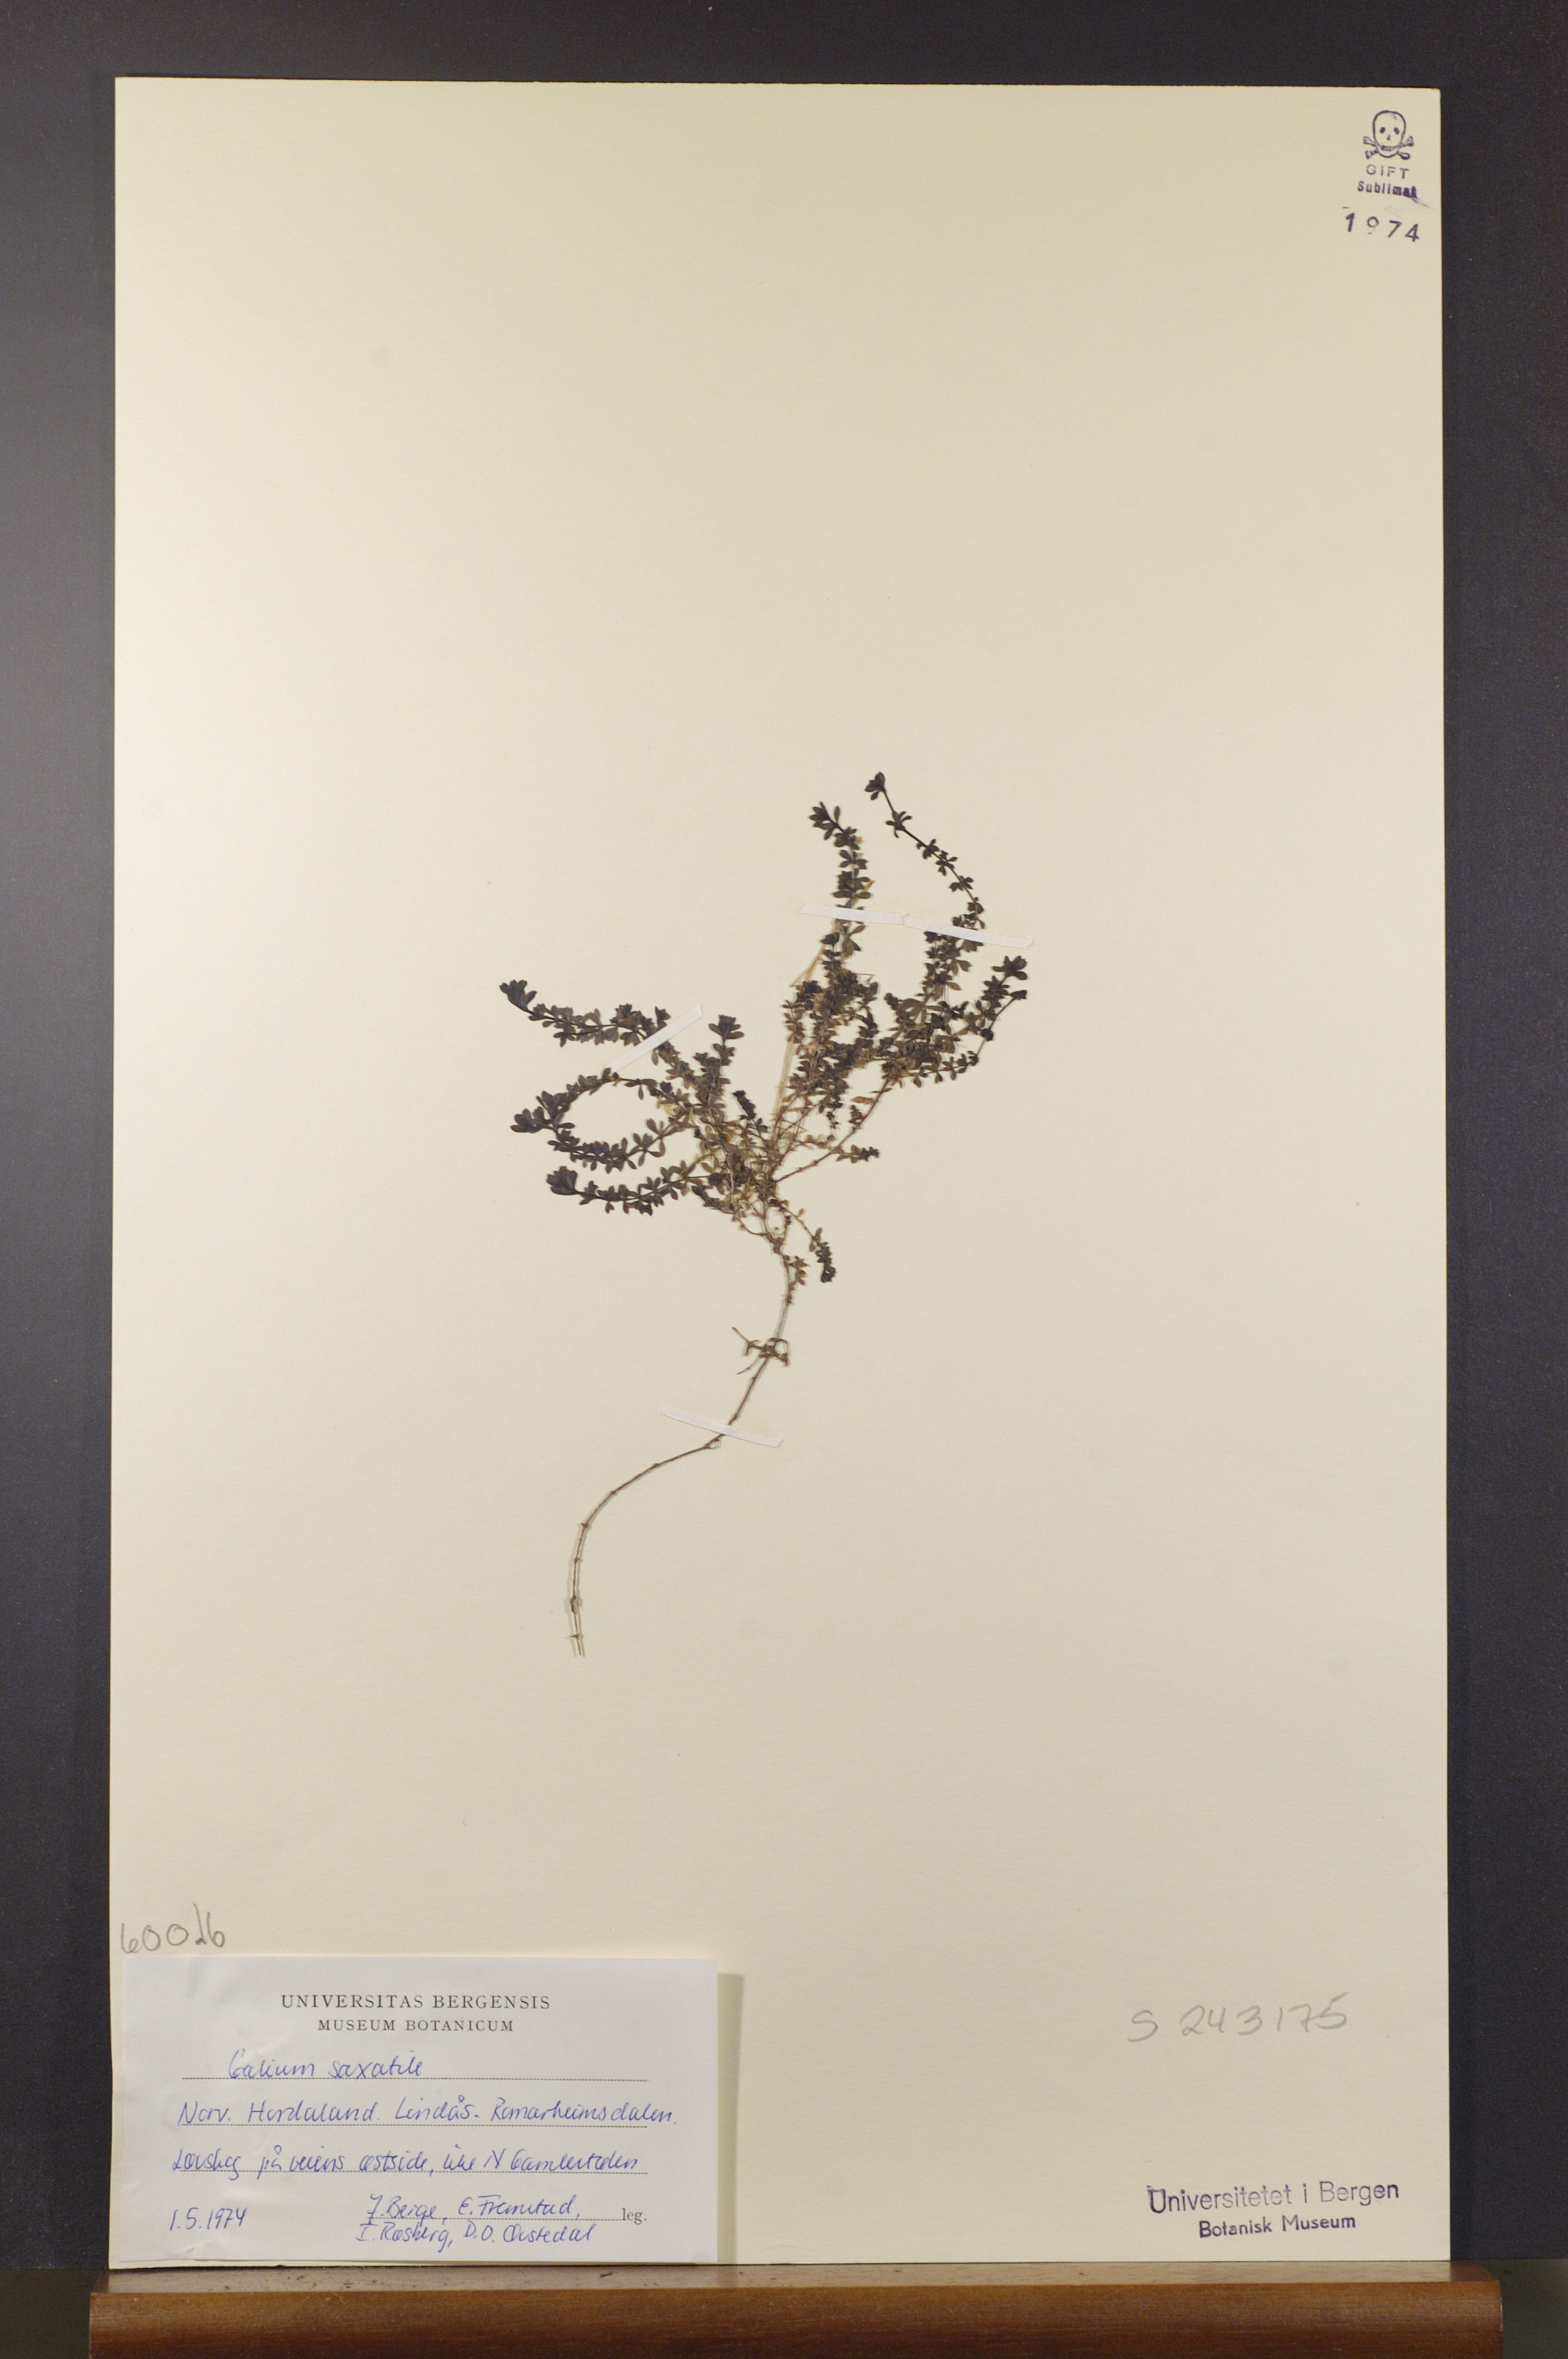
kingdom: Plantae
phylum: Tracheophyta
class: Magnoliopsida
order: Gentianales
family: Rubiaceae
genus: Galium
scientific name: Galium saxatile
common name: Heath bedstraw
